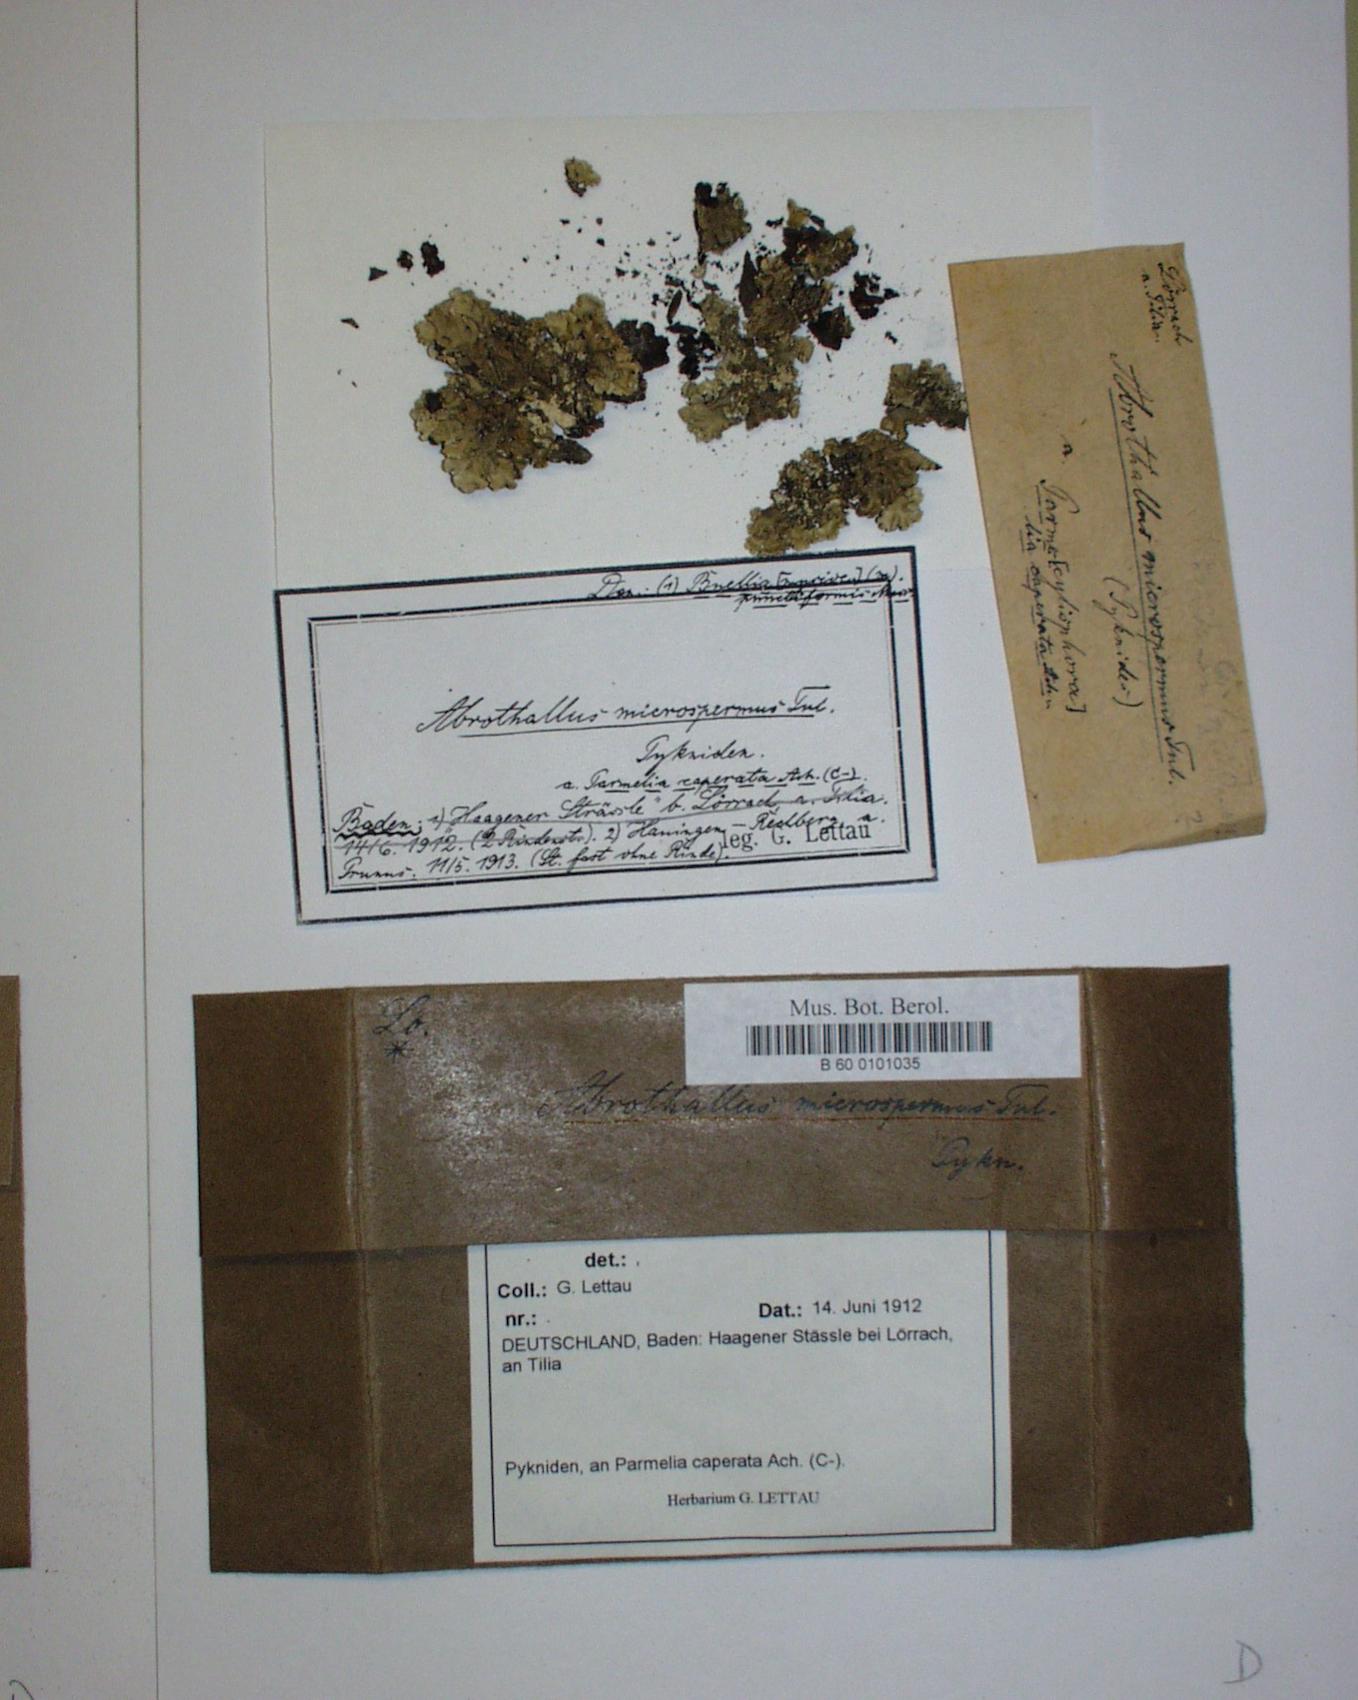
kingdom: Fungi
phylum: Ascomycota
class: Dothideomycetes
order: Abrothallales
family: Abrothallaceae
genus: Abrothallus
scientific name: Abrothallus microspermus
